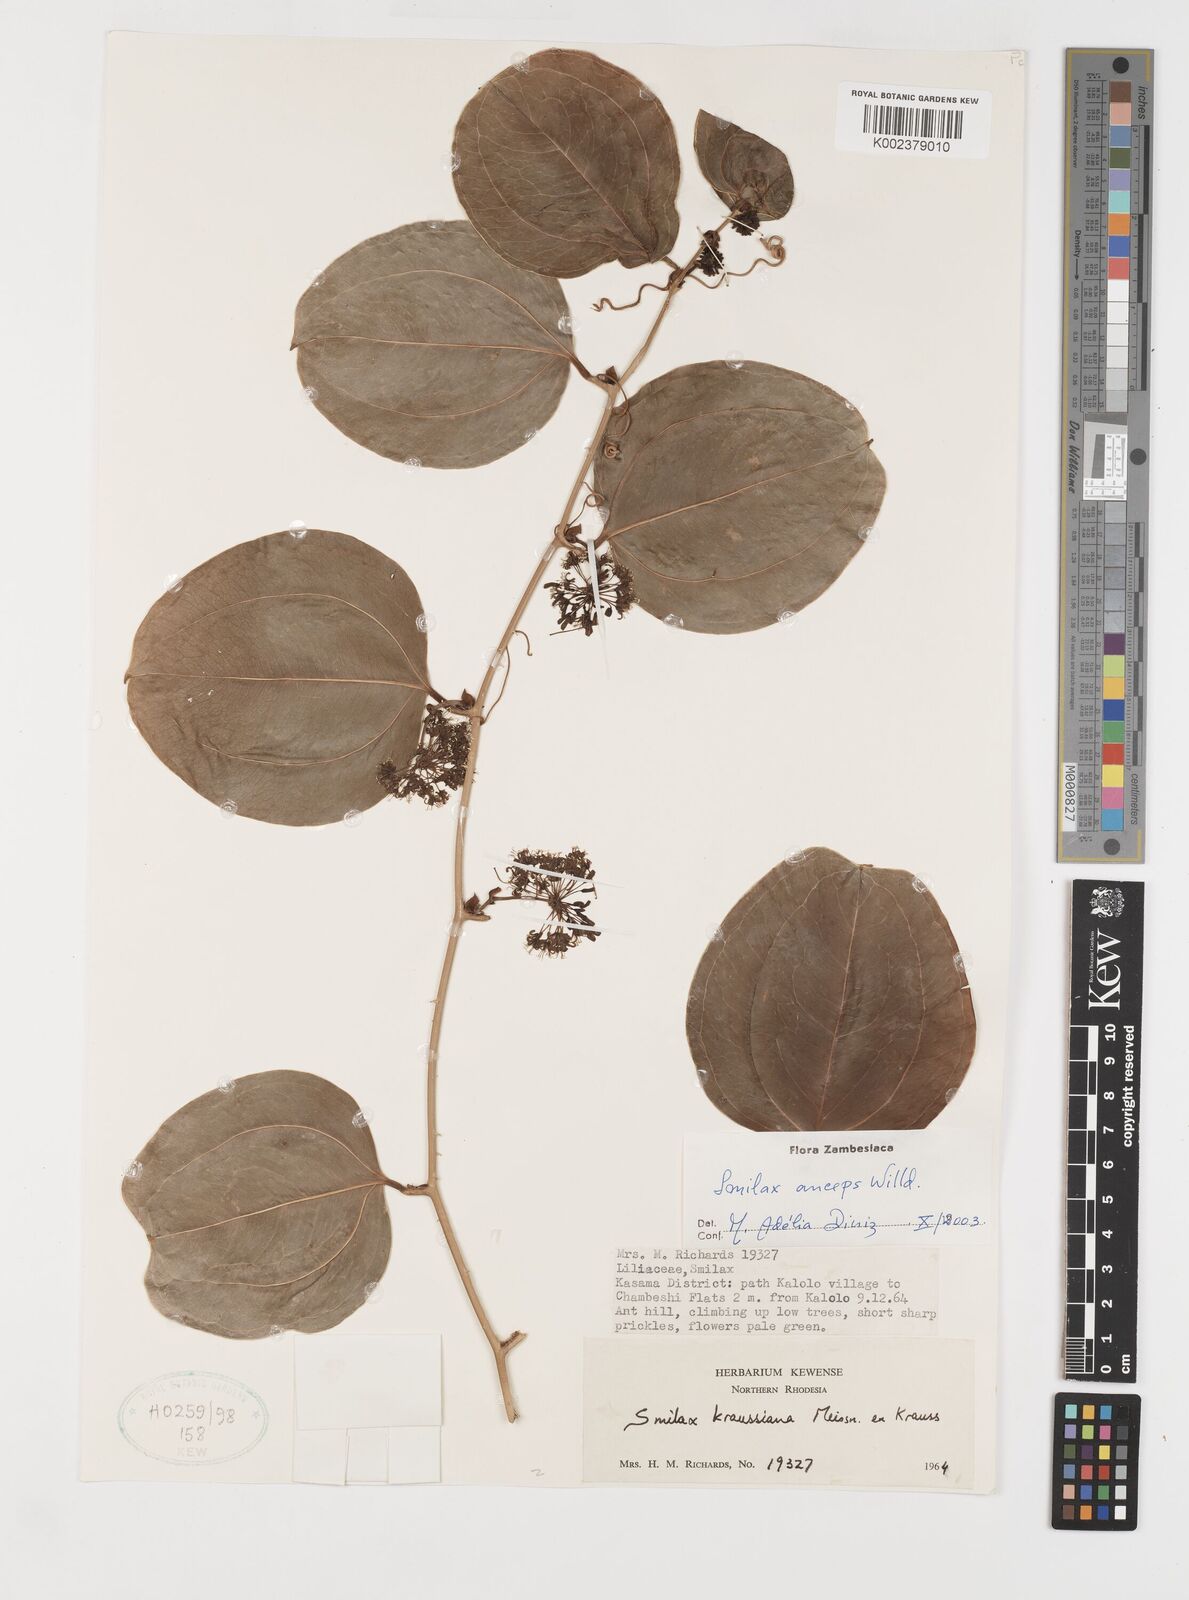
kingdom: Plantae
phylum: Tracheophyta
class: Liliopsida
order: Liliales
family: Smilacaceae
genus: Smilax
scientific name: Smilax anceps
